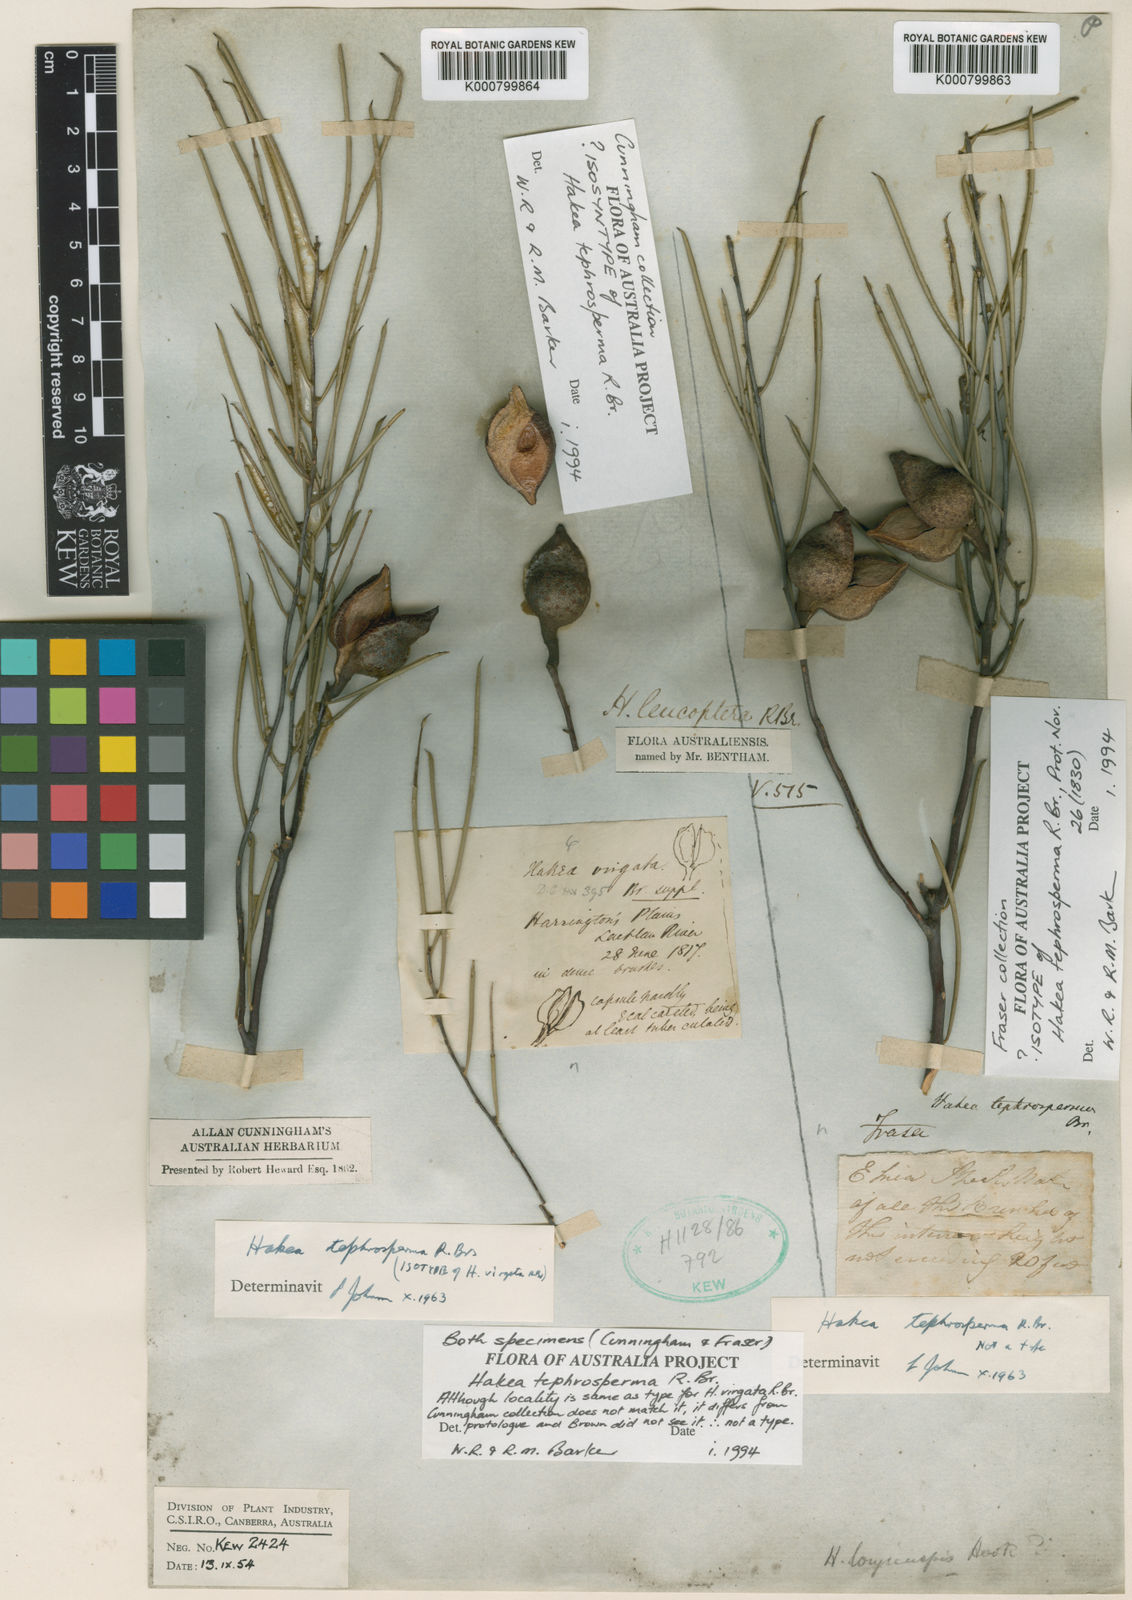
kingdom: Plantae
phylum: Tracheophyta
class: Magnoliopsida
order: Proteales
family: Proteaceae
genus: Hakea
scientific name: Hakea tephrosperma
